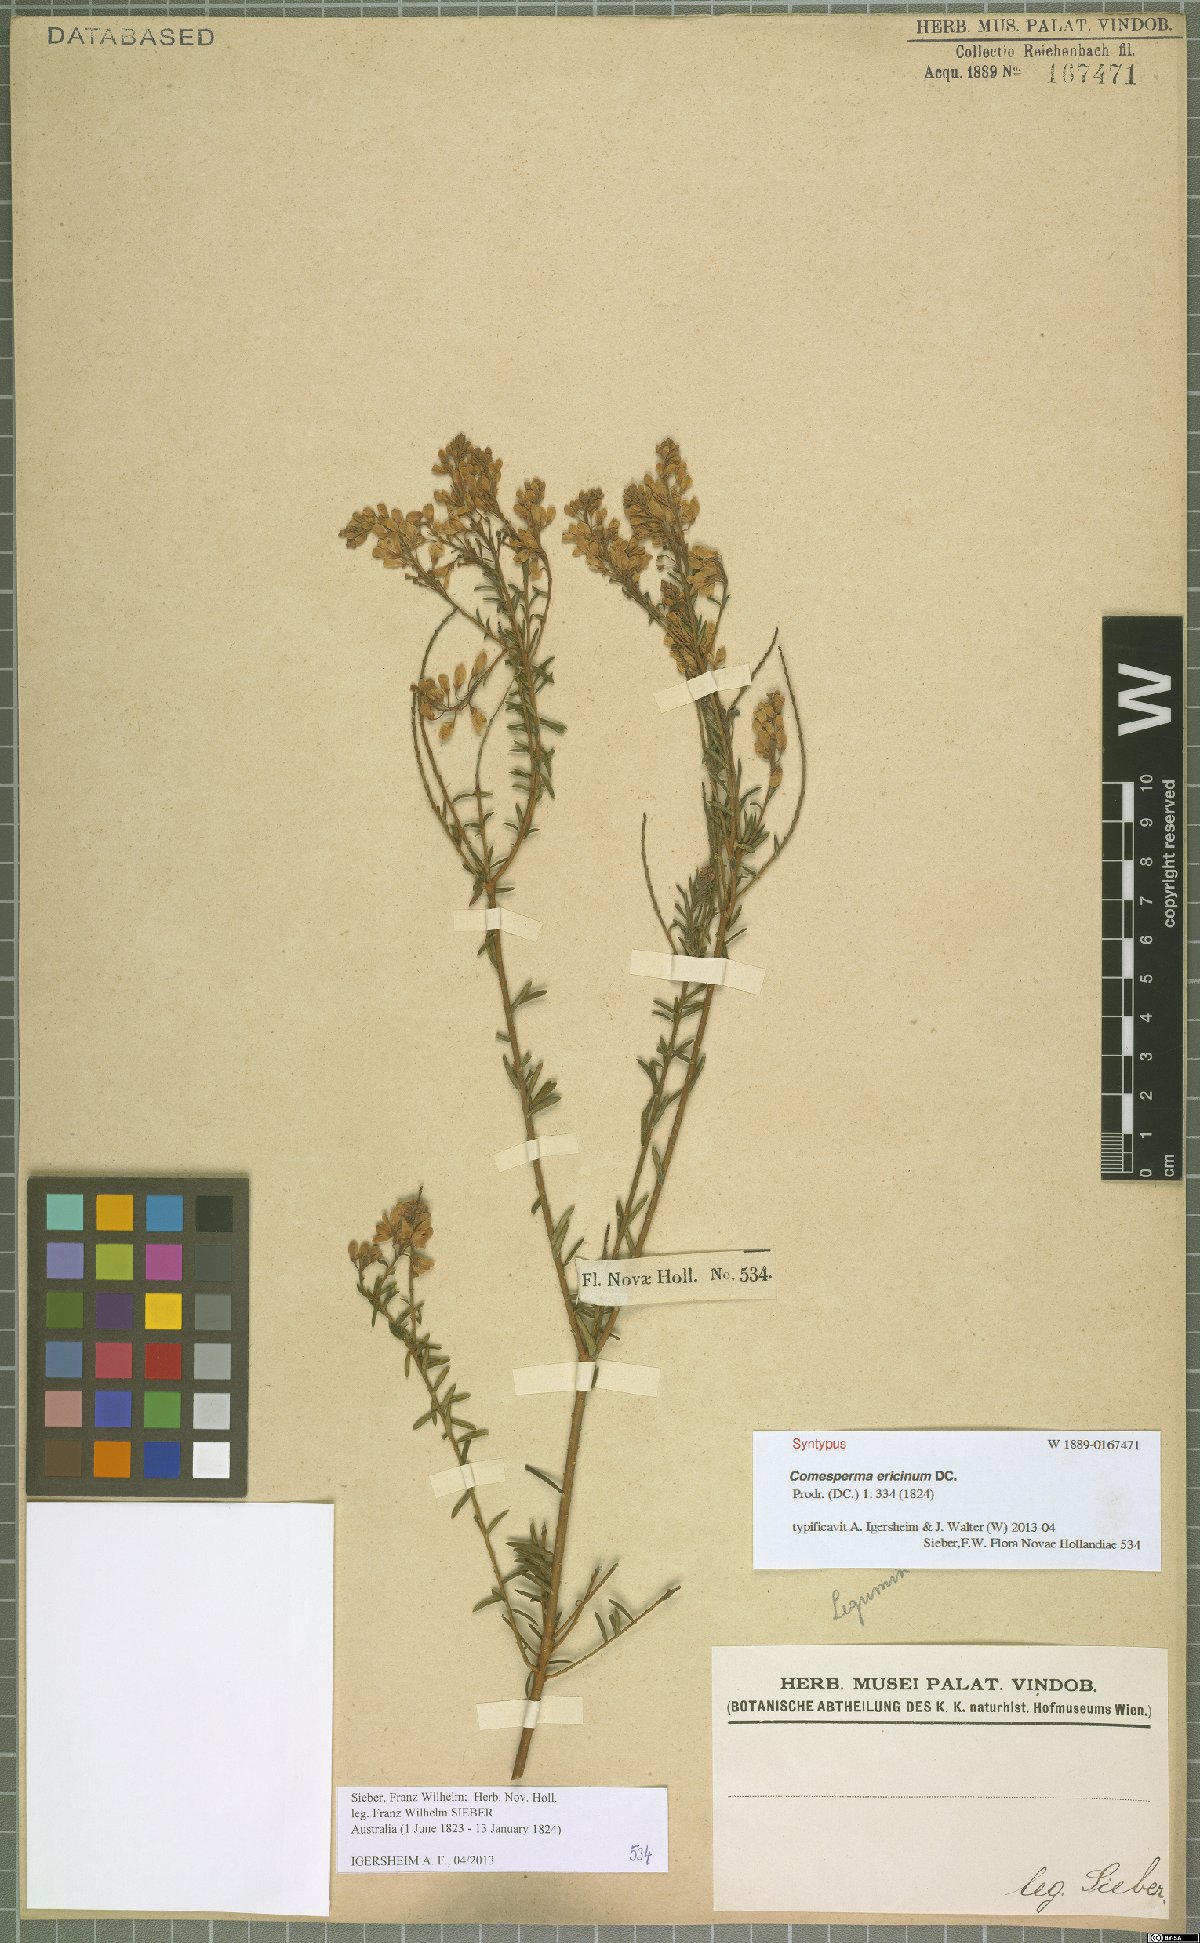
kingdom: Plantae
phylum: Tracheophyta
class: Magnoliopsida
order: Fabales
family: Polygalaceae
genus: Comesperma
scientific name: Comesperma ericinum
